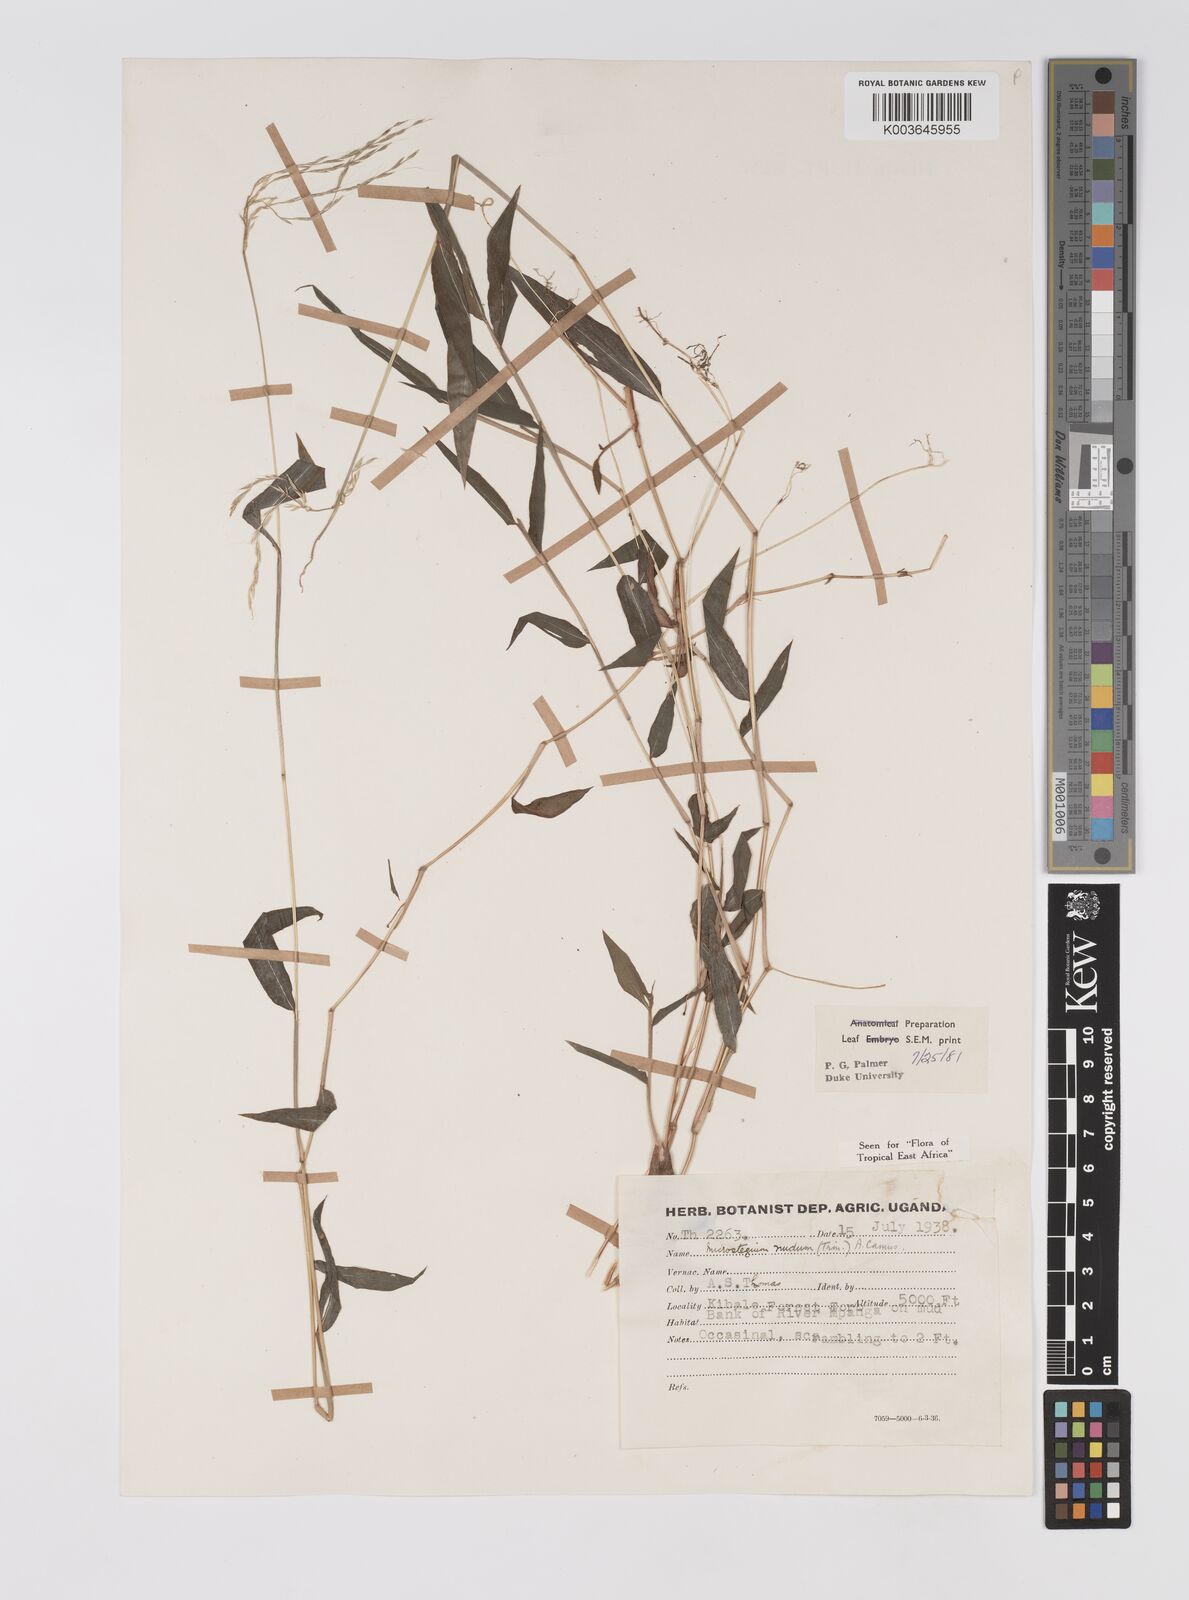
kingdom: Plantae
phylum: Tracheophyta
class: Liliopsida
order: Poales
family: Poaceae
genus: Microstegium
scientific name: Microstegium nudum
